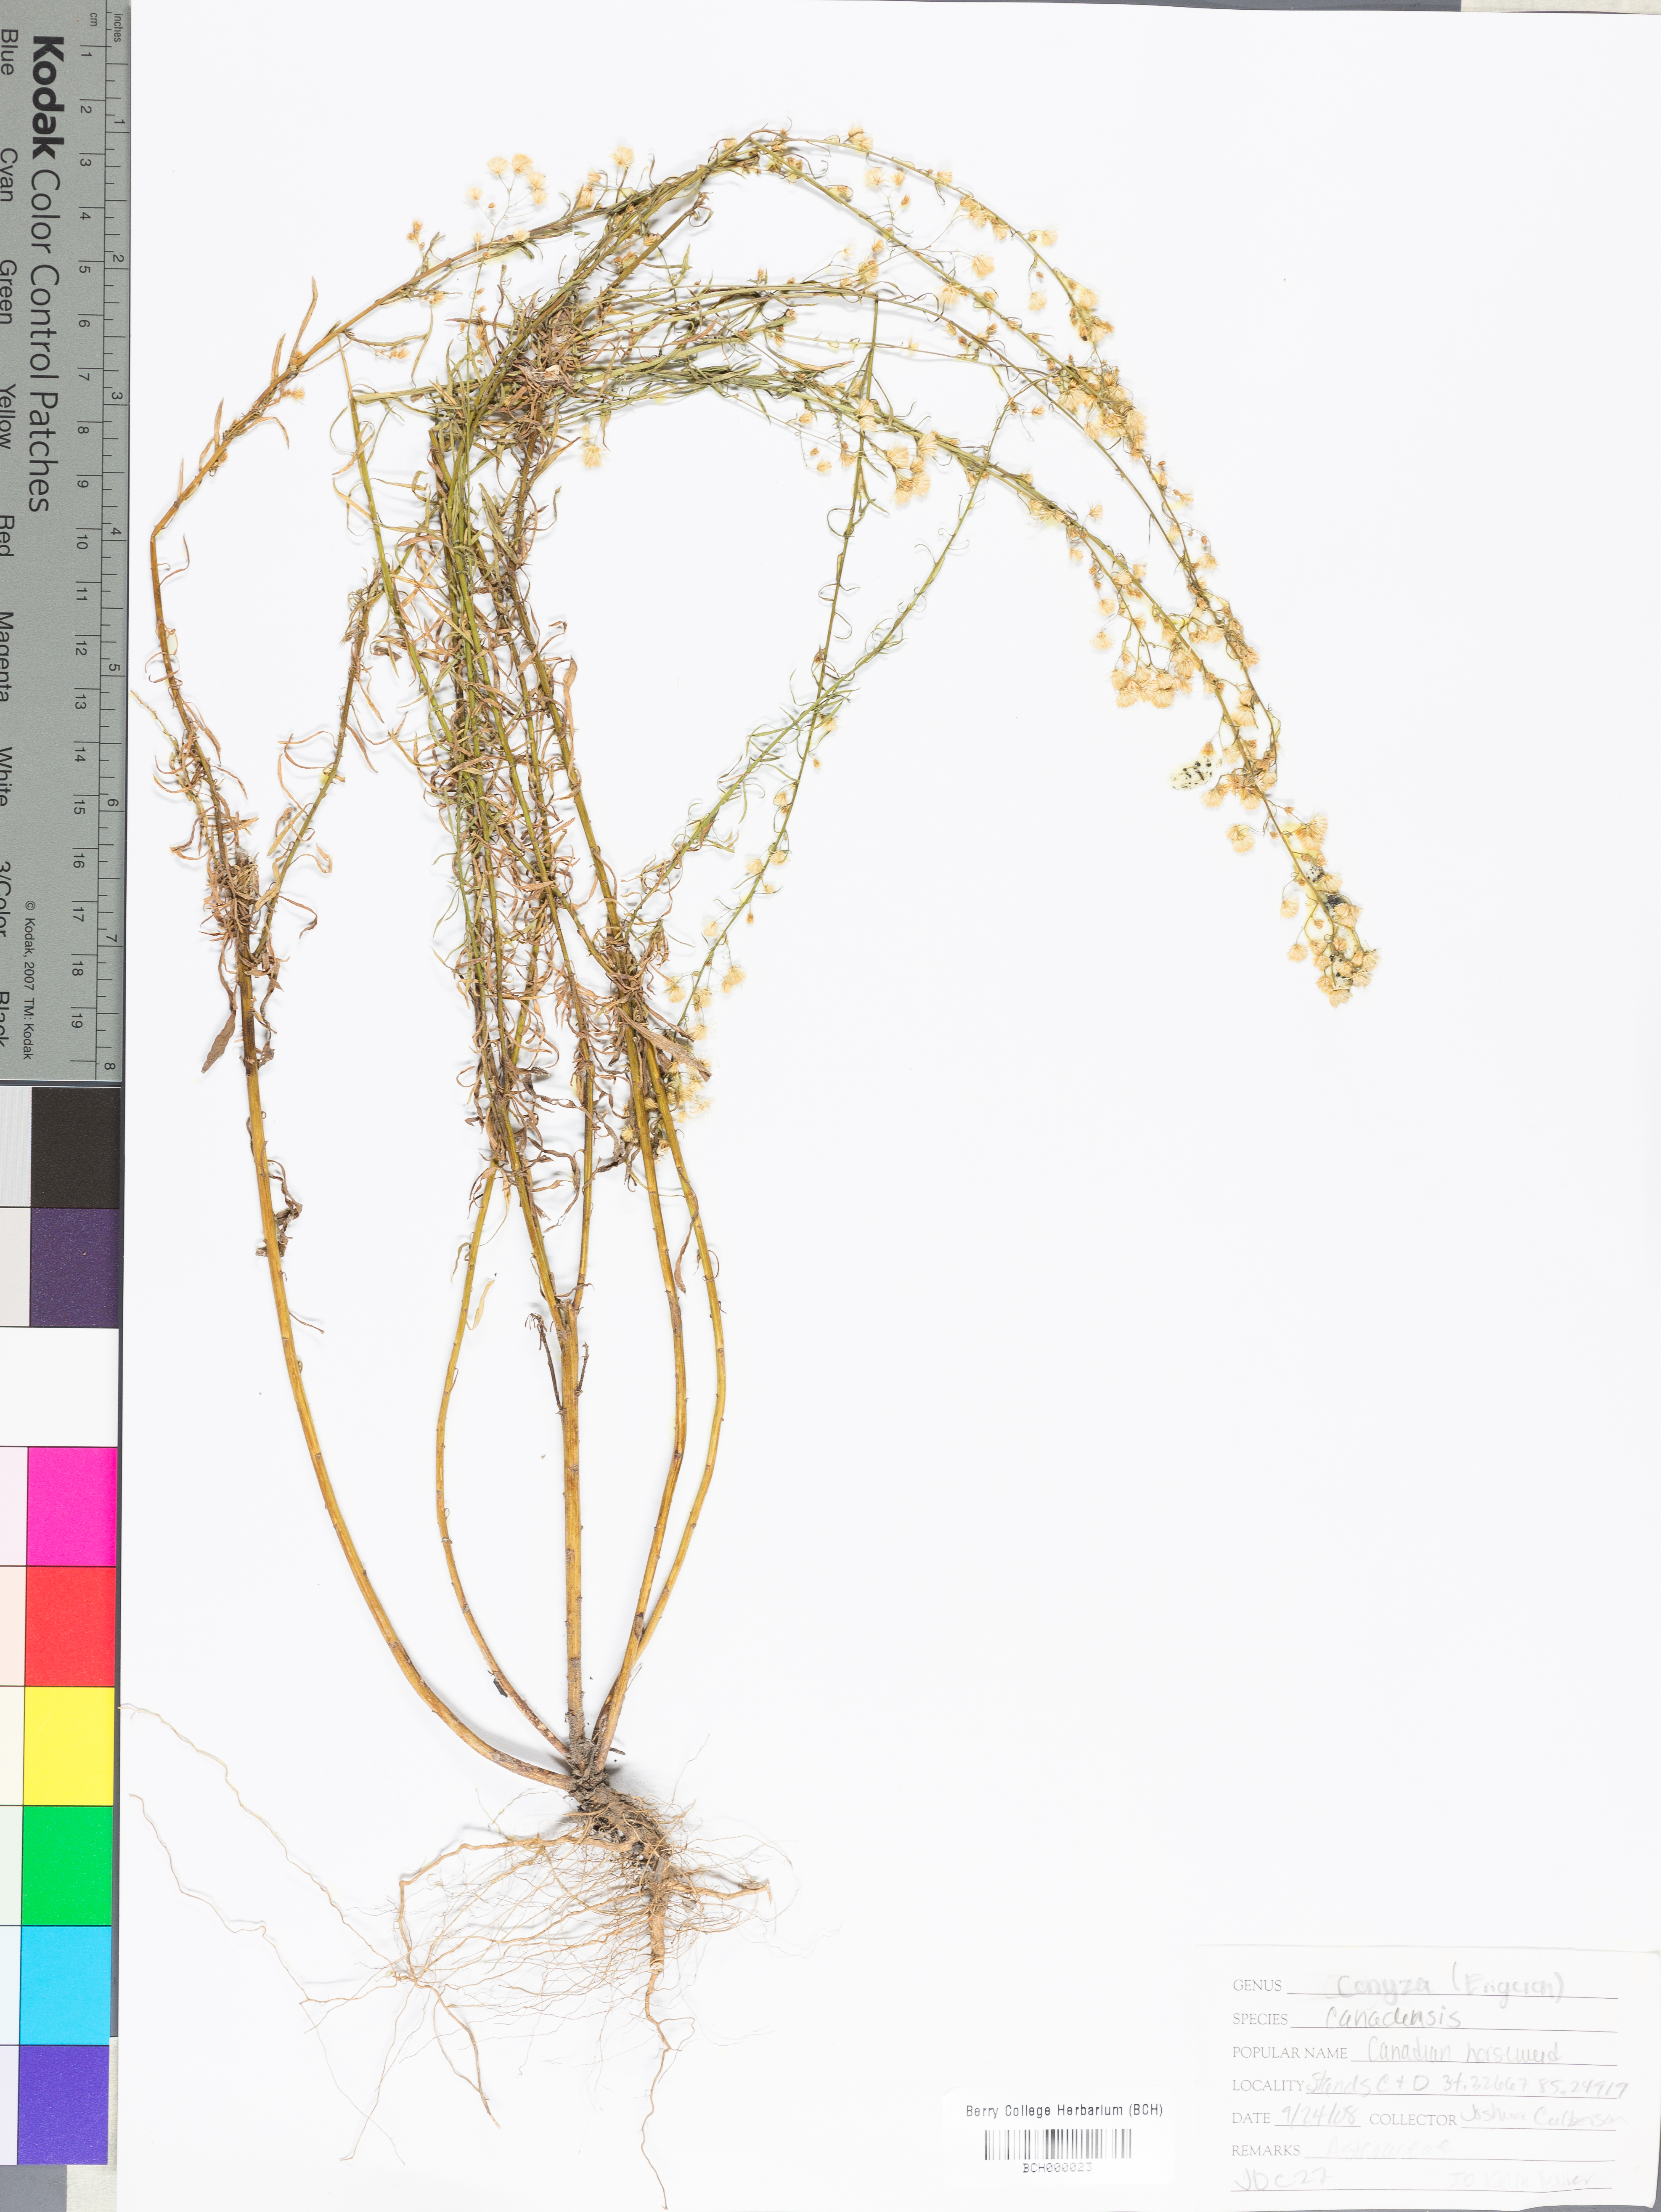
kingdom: Plantae
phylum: Tracheophyta
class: Magnoliopsida
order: Asterales
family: Asteraceae
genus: Erigeron
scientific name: Erigeron canadensis
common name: Canadian fleabane
